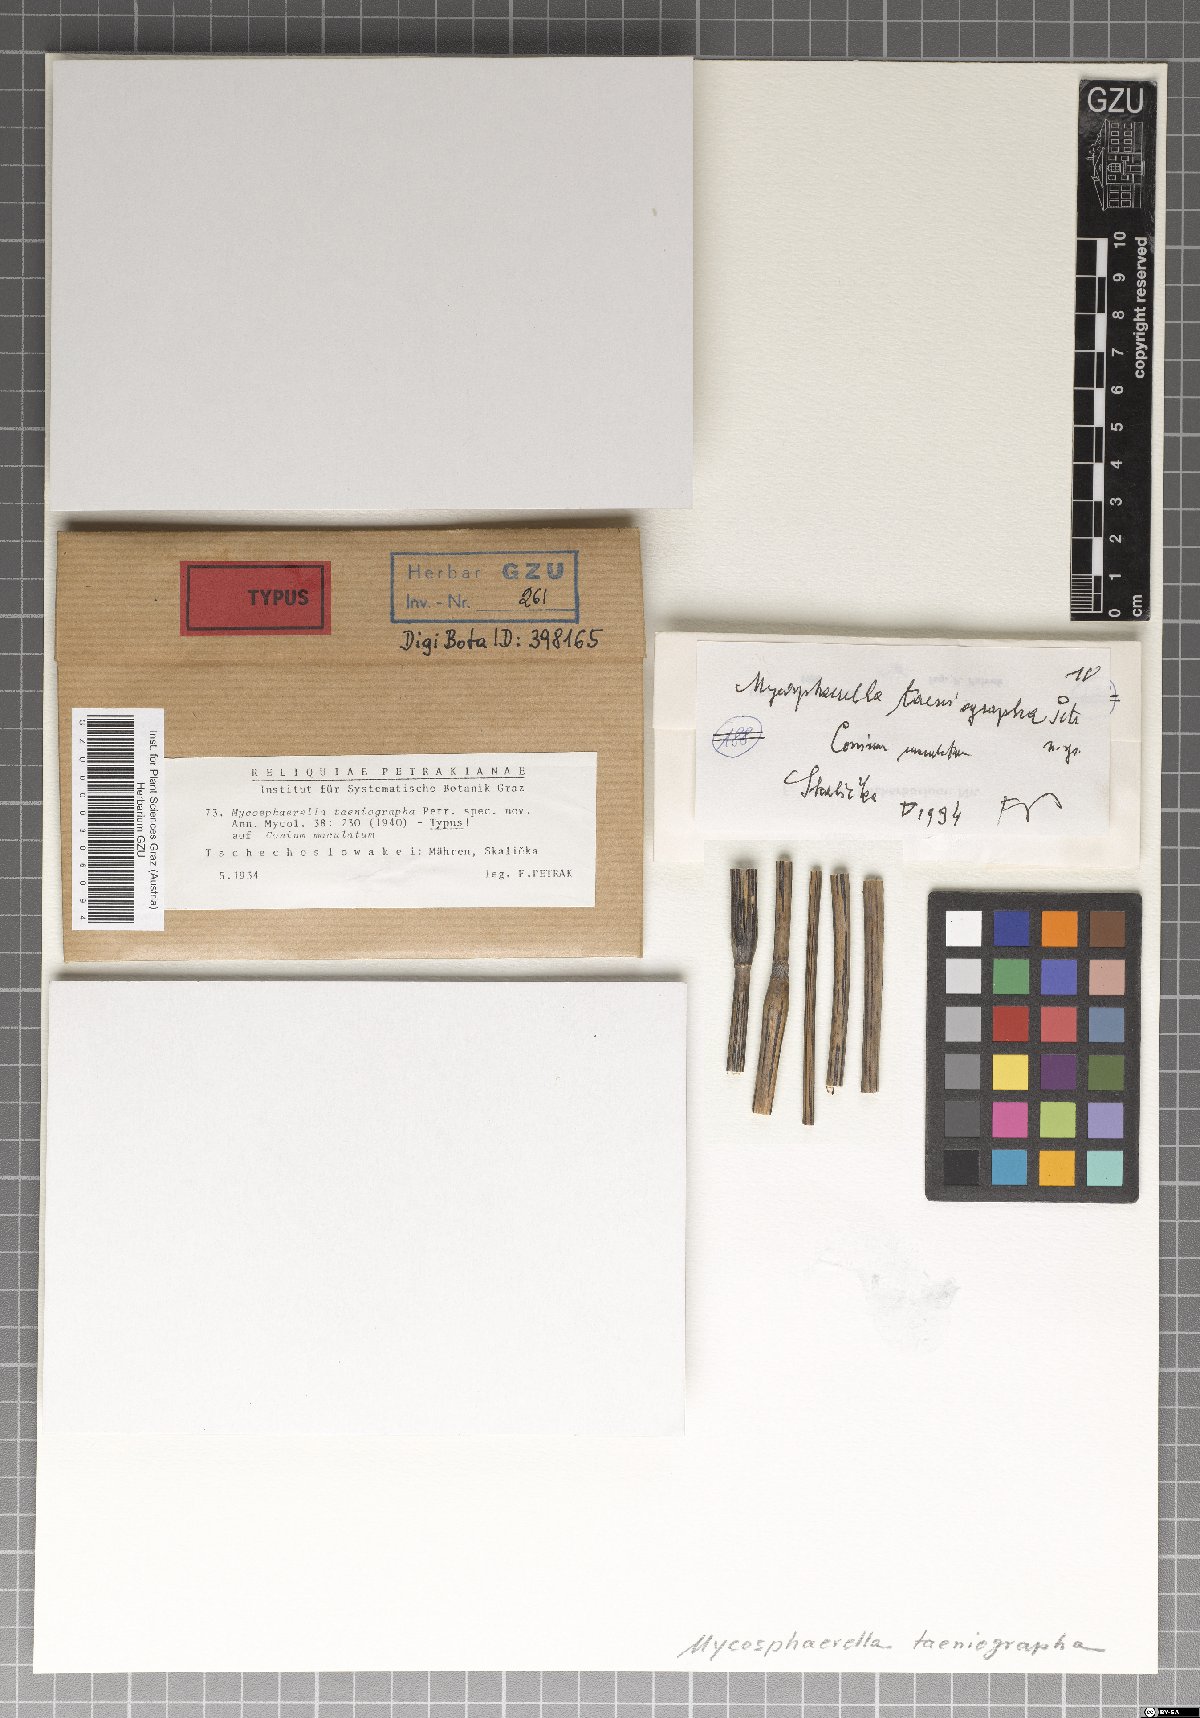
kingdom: Fungi
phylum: Ascomycota
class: Dothideomycetes
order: Mycosphaerellales
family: Mycosphaerellaceae
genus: Mycosphaerella
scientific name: Mycosphaerella taeniographa
